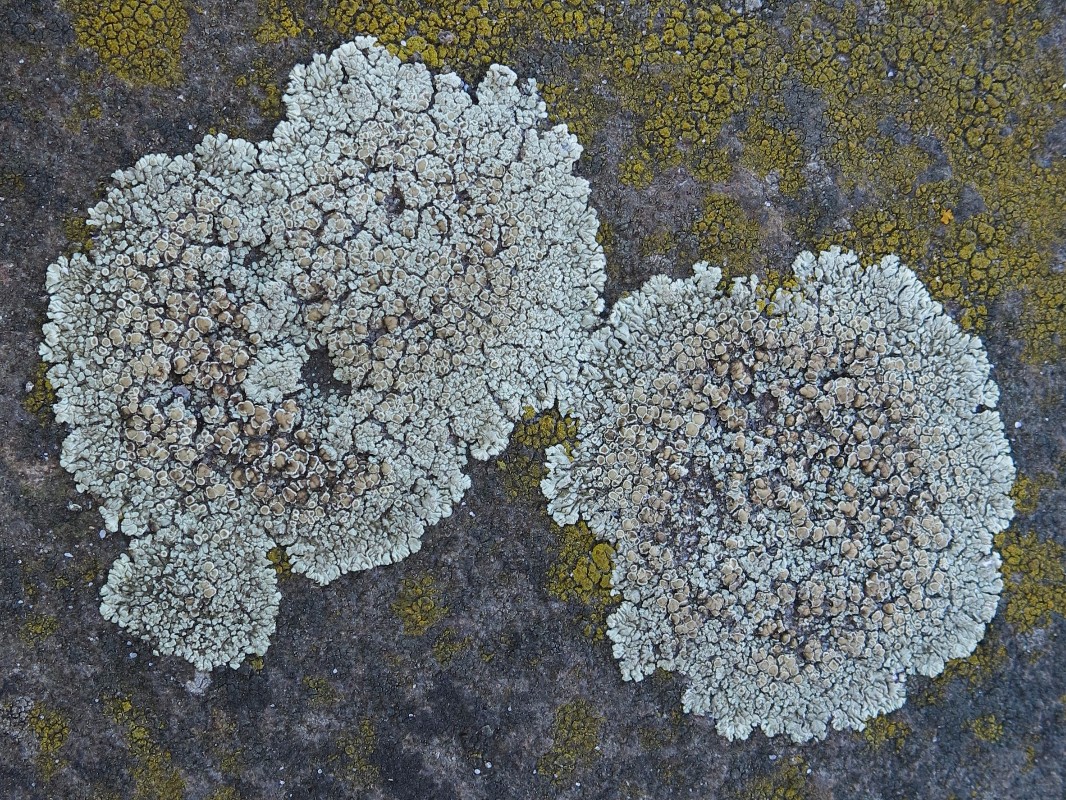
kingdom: Fungi
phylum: Ascomycota
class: Lecanoromycetes
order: Lecanorales
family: Lecanoraceae
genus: Protoparmeliopsis
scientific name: Protoparmeliopsis muralis
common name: randfliget kantskivelav
